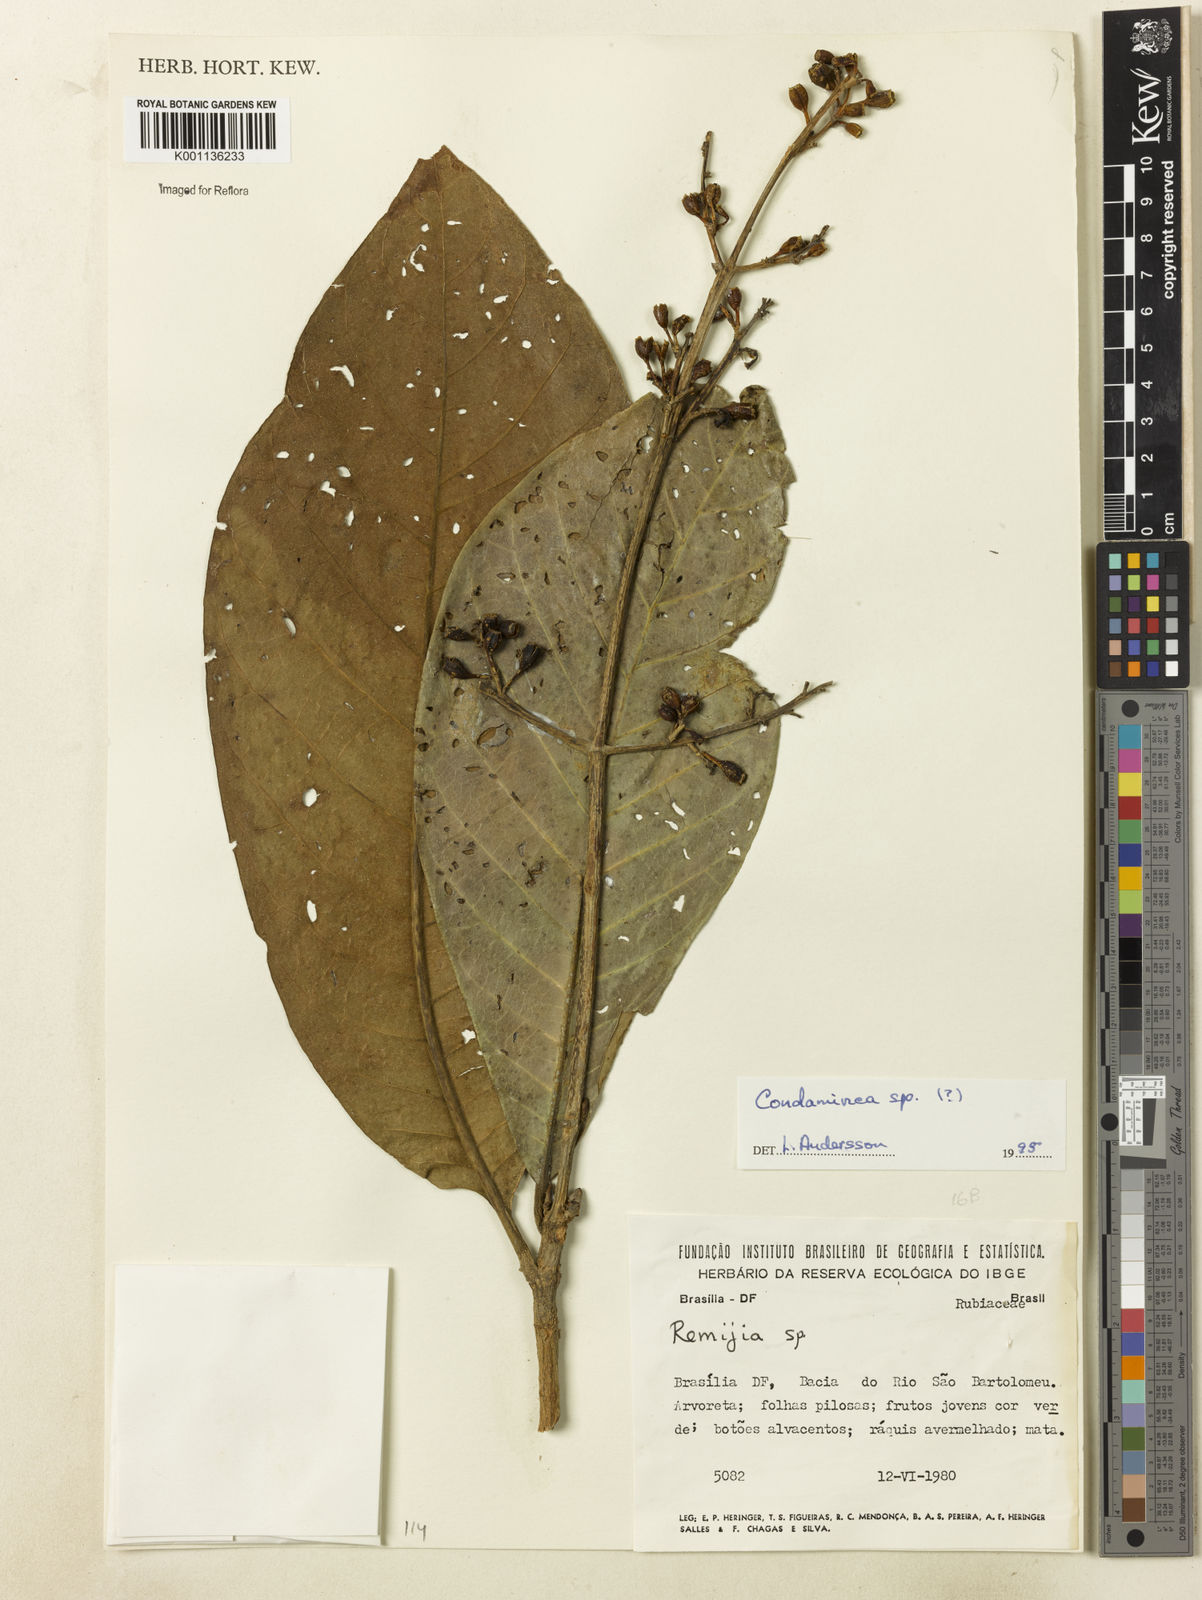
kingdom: Plantae
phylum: Tracheophyta
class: Magnoliopsida
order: Gentianales
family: Rubiaceae
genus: Condaminea
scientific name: Condaminea
